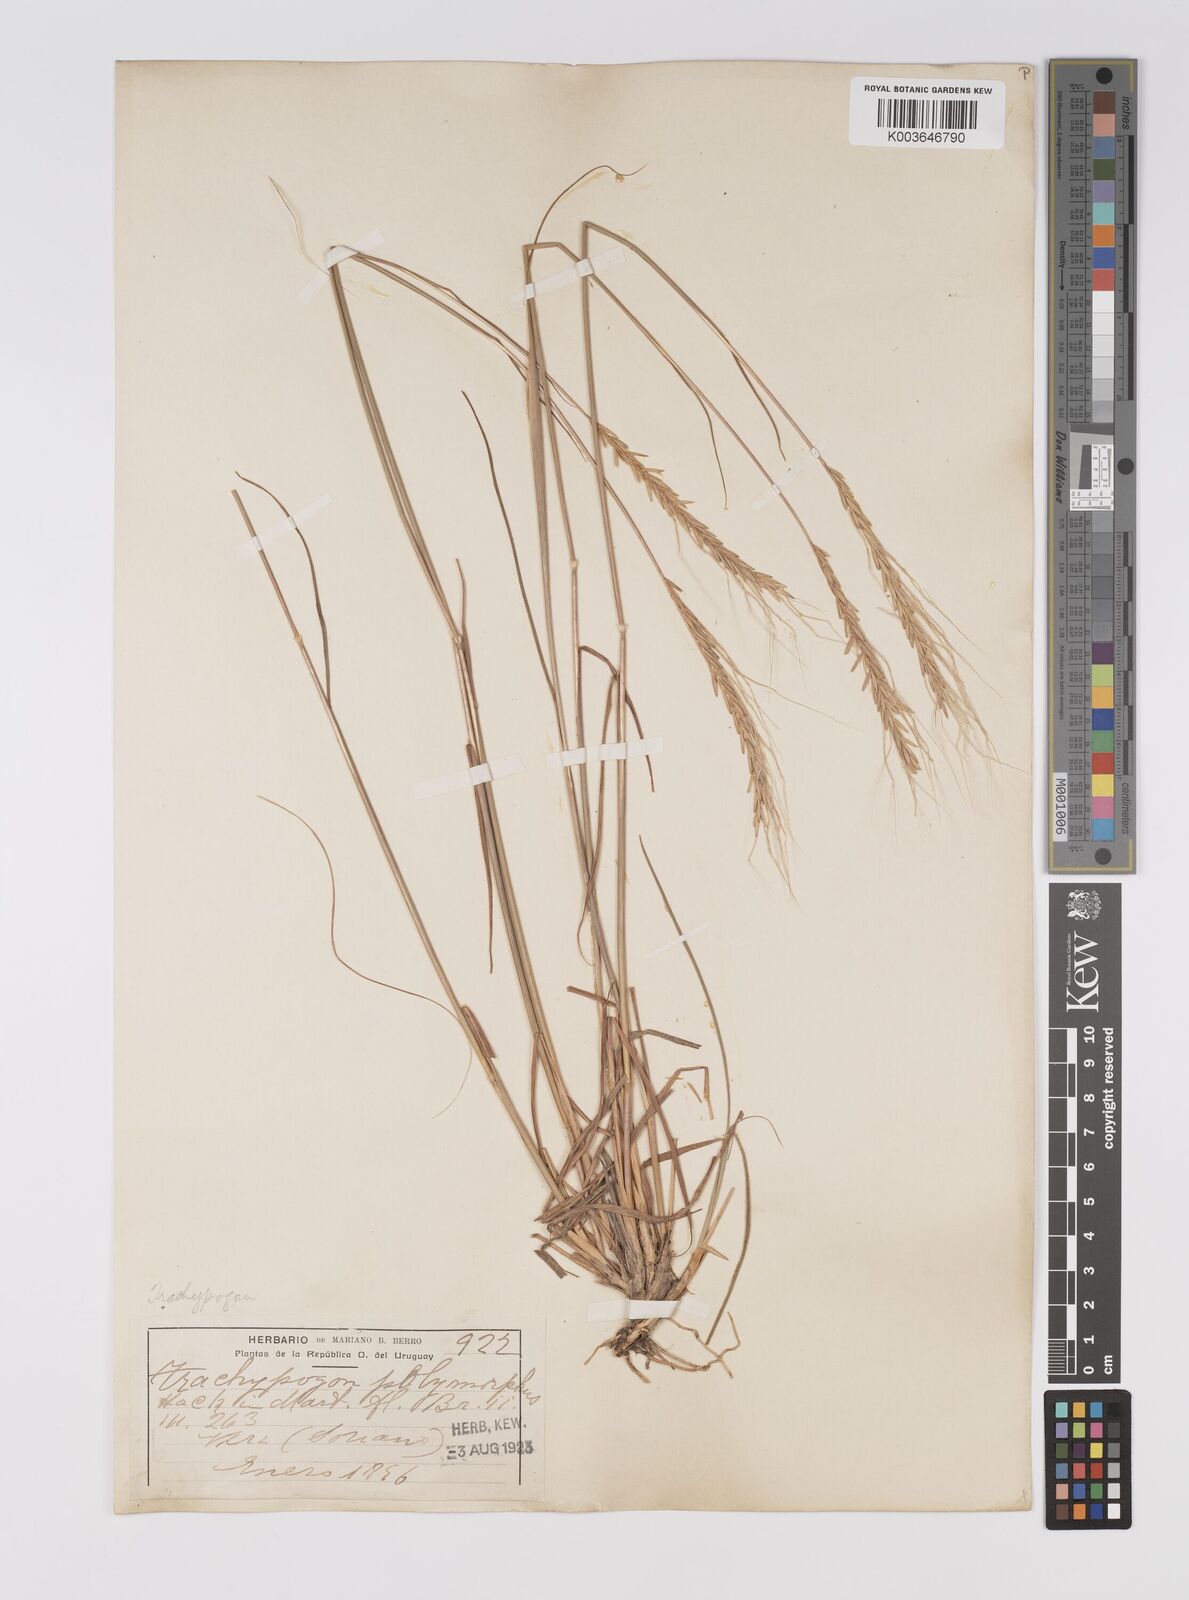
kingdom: Plantae
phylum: Tracheophyta
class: Liliopsida
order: Poales
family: Poaceae
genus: Trachypogon
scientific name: Trachypogon spicatus
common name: Crinkle-awn
